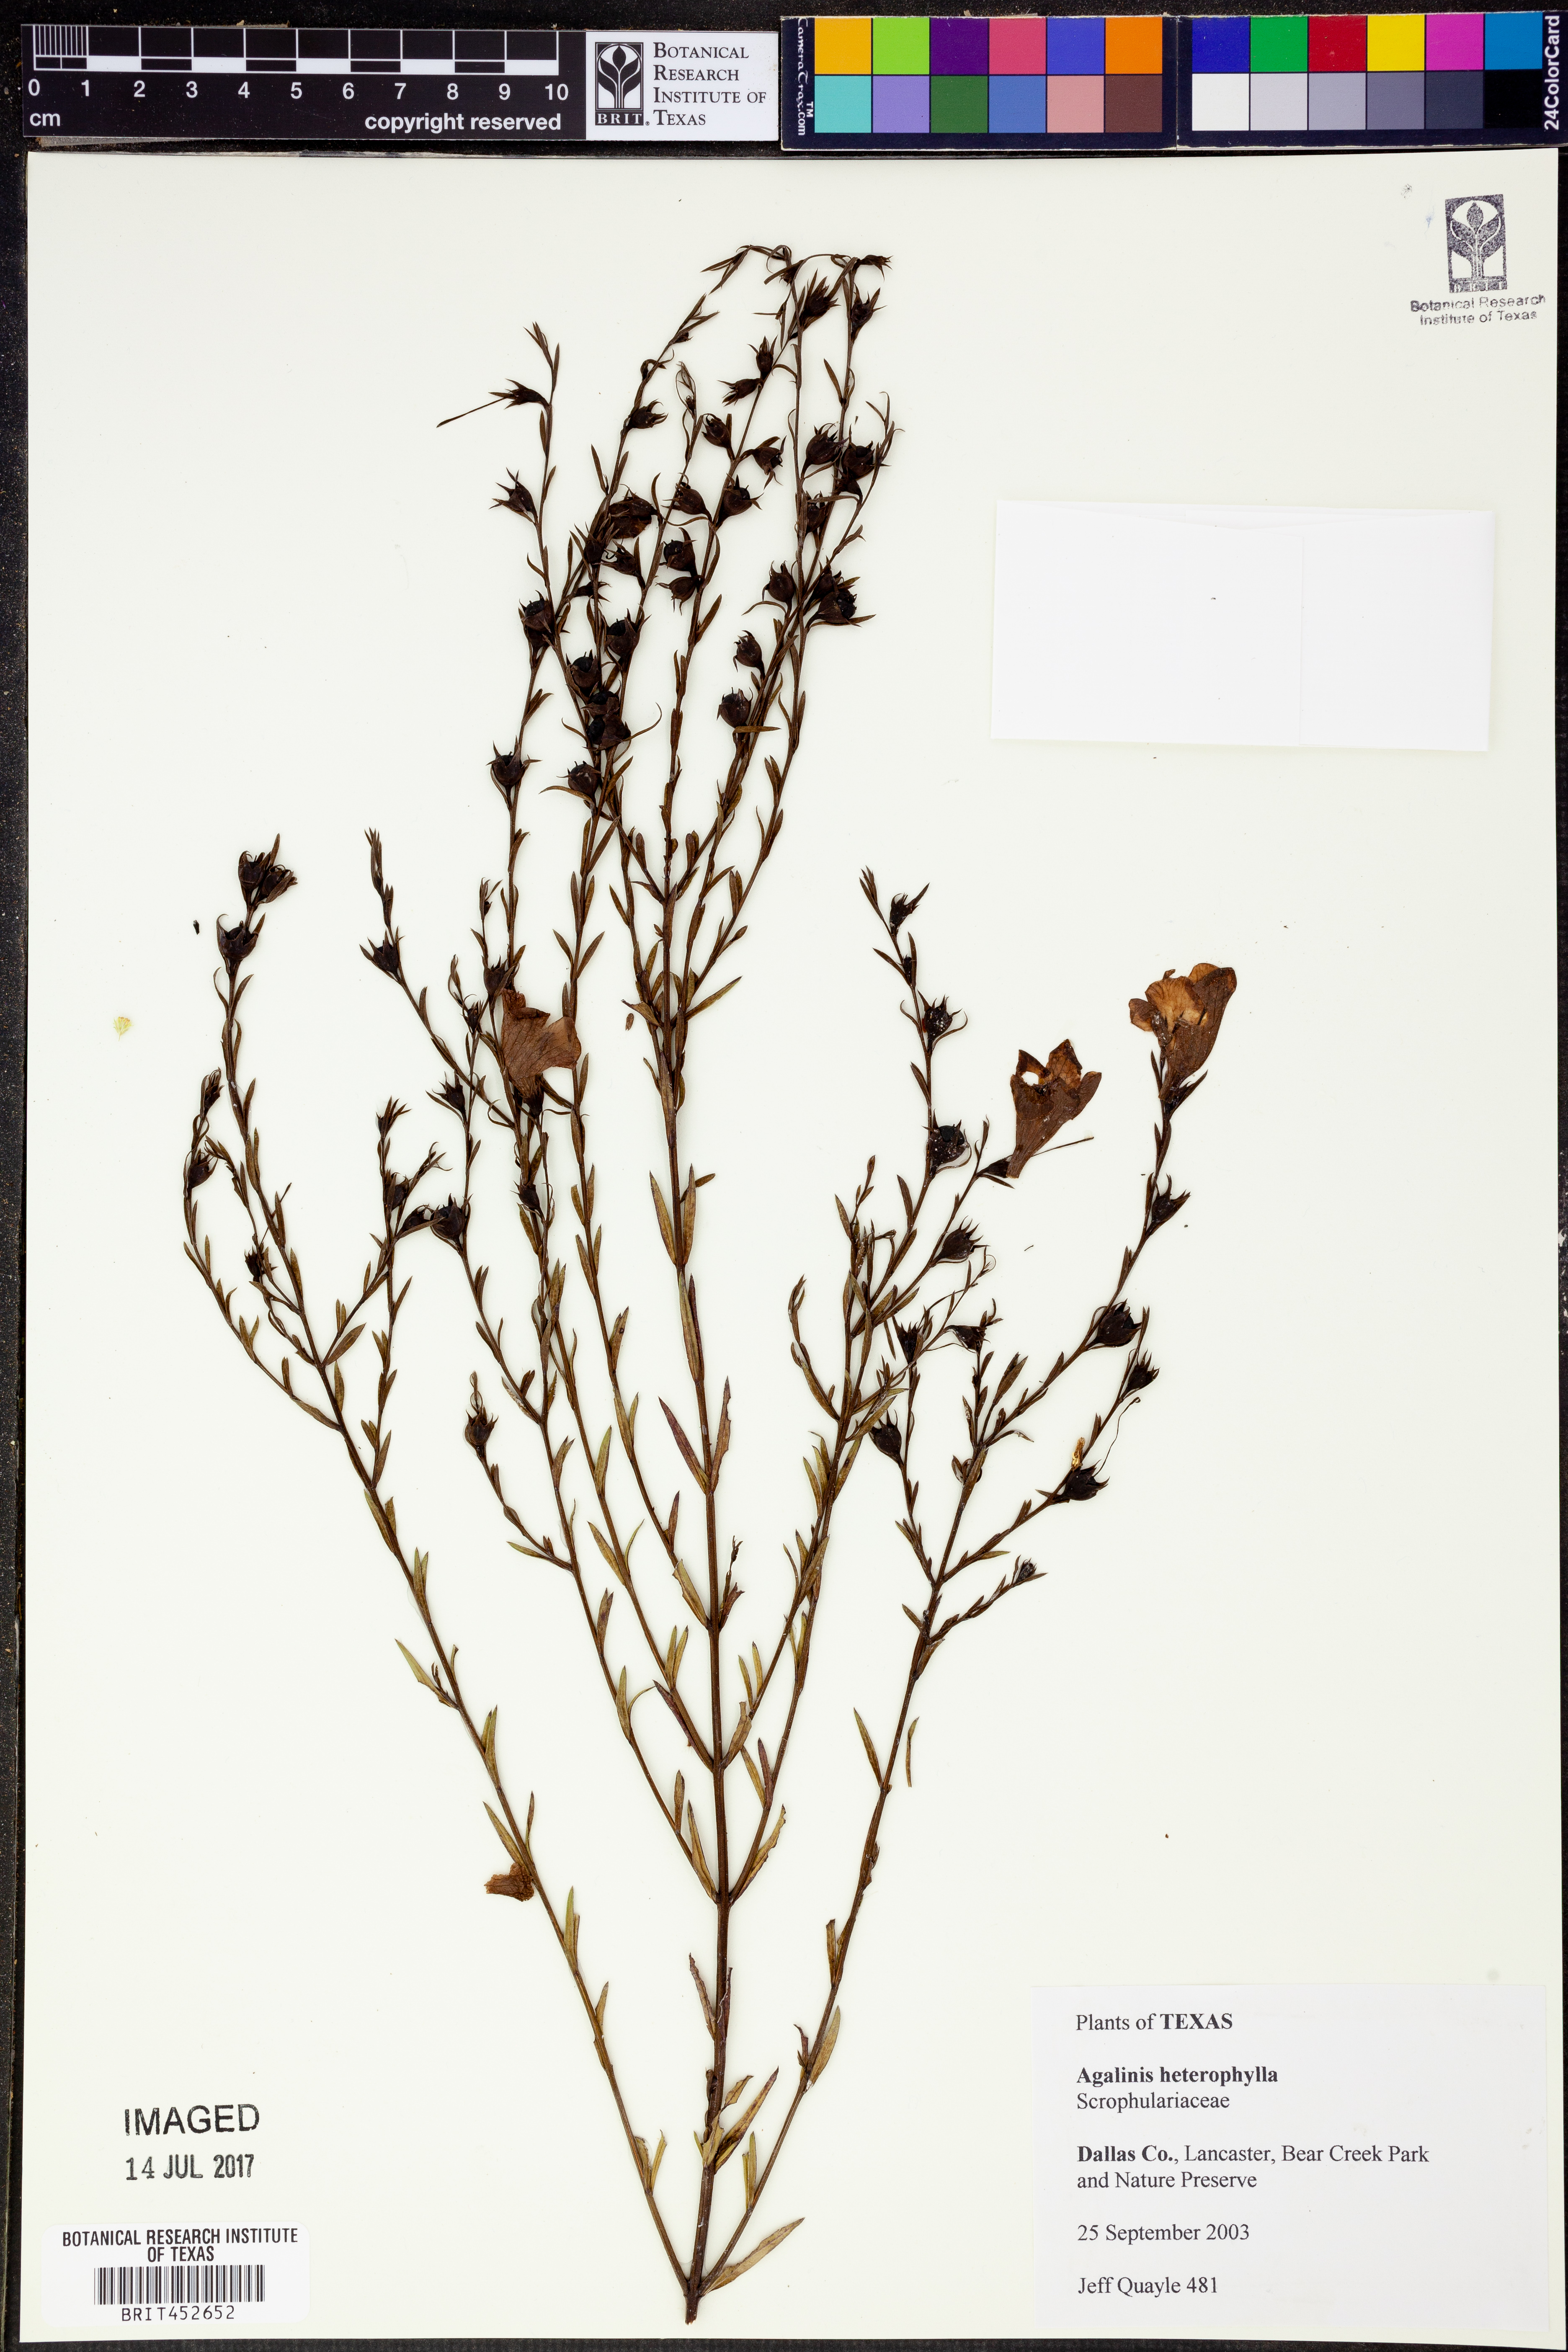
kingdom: Plantae
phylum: Tracheophyta
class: Magnoliopsida
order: Lamiales
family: Orobanchaceae
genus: Agalinis
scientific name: Agalinis heterophylla
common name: Prairie agalinis
